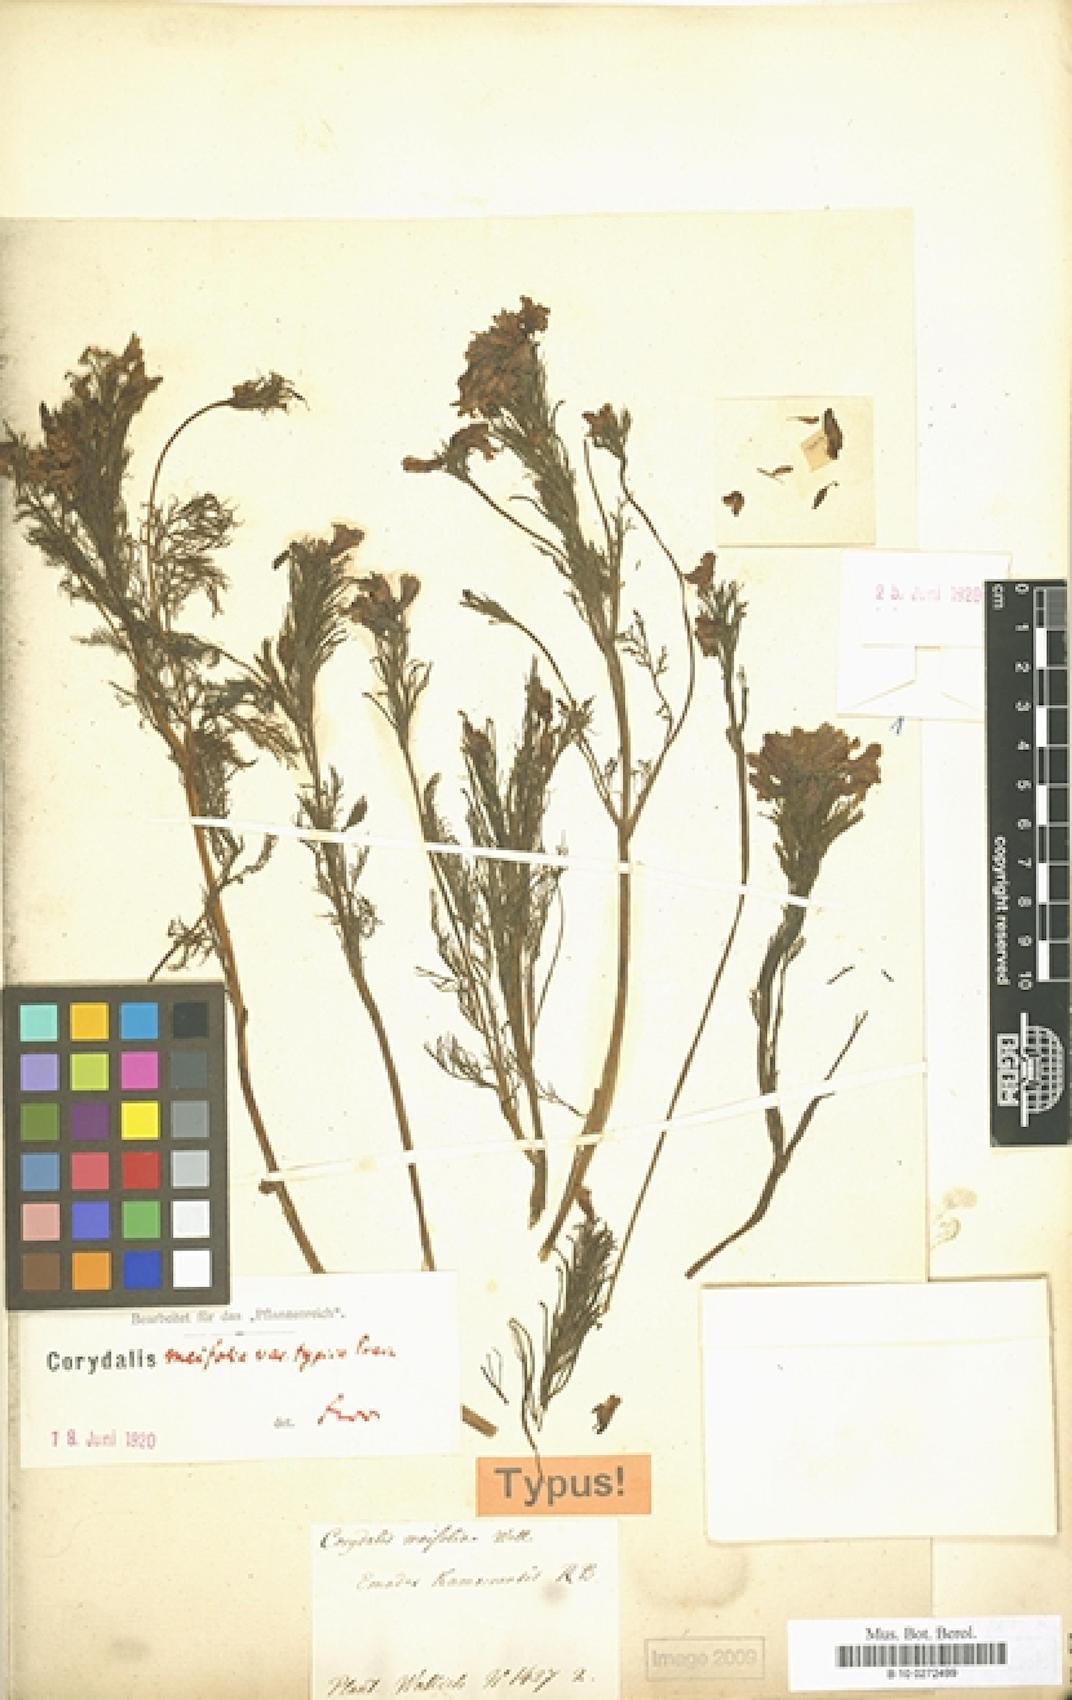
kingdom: Plantae
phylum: Tracheophyta
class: Magnoliopsida
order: Ranunculales
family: Papaveraceae
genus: Corydalis
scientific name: Corydalis meifolia
